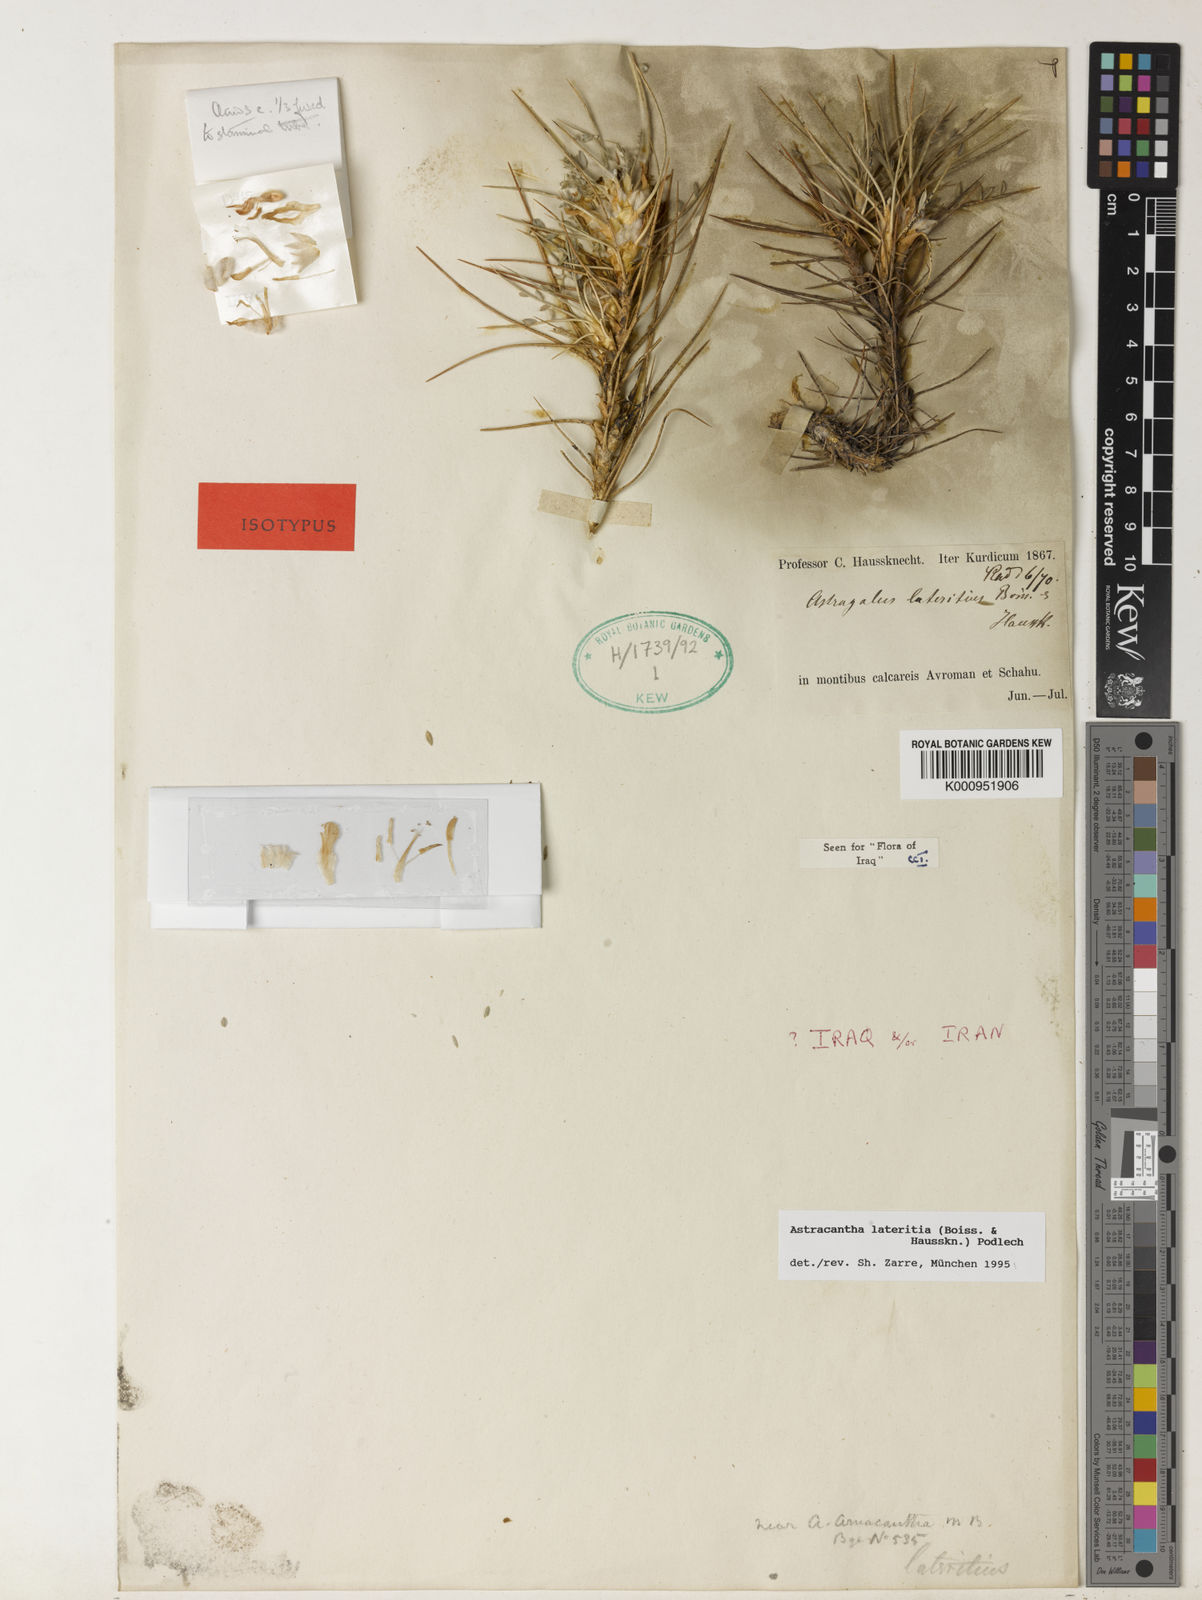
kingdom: Plantae
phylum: Tracheophyta
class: Magnoliopsida
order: Fabales
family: Fabaceae
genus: Astragalus
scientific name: Astragalus lateritius
